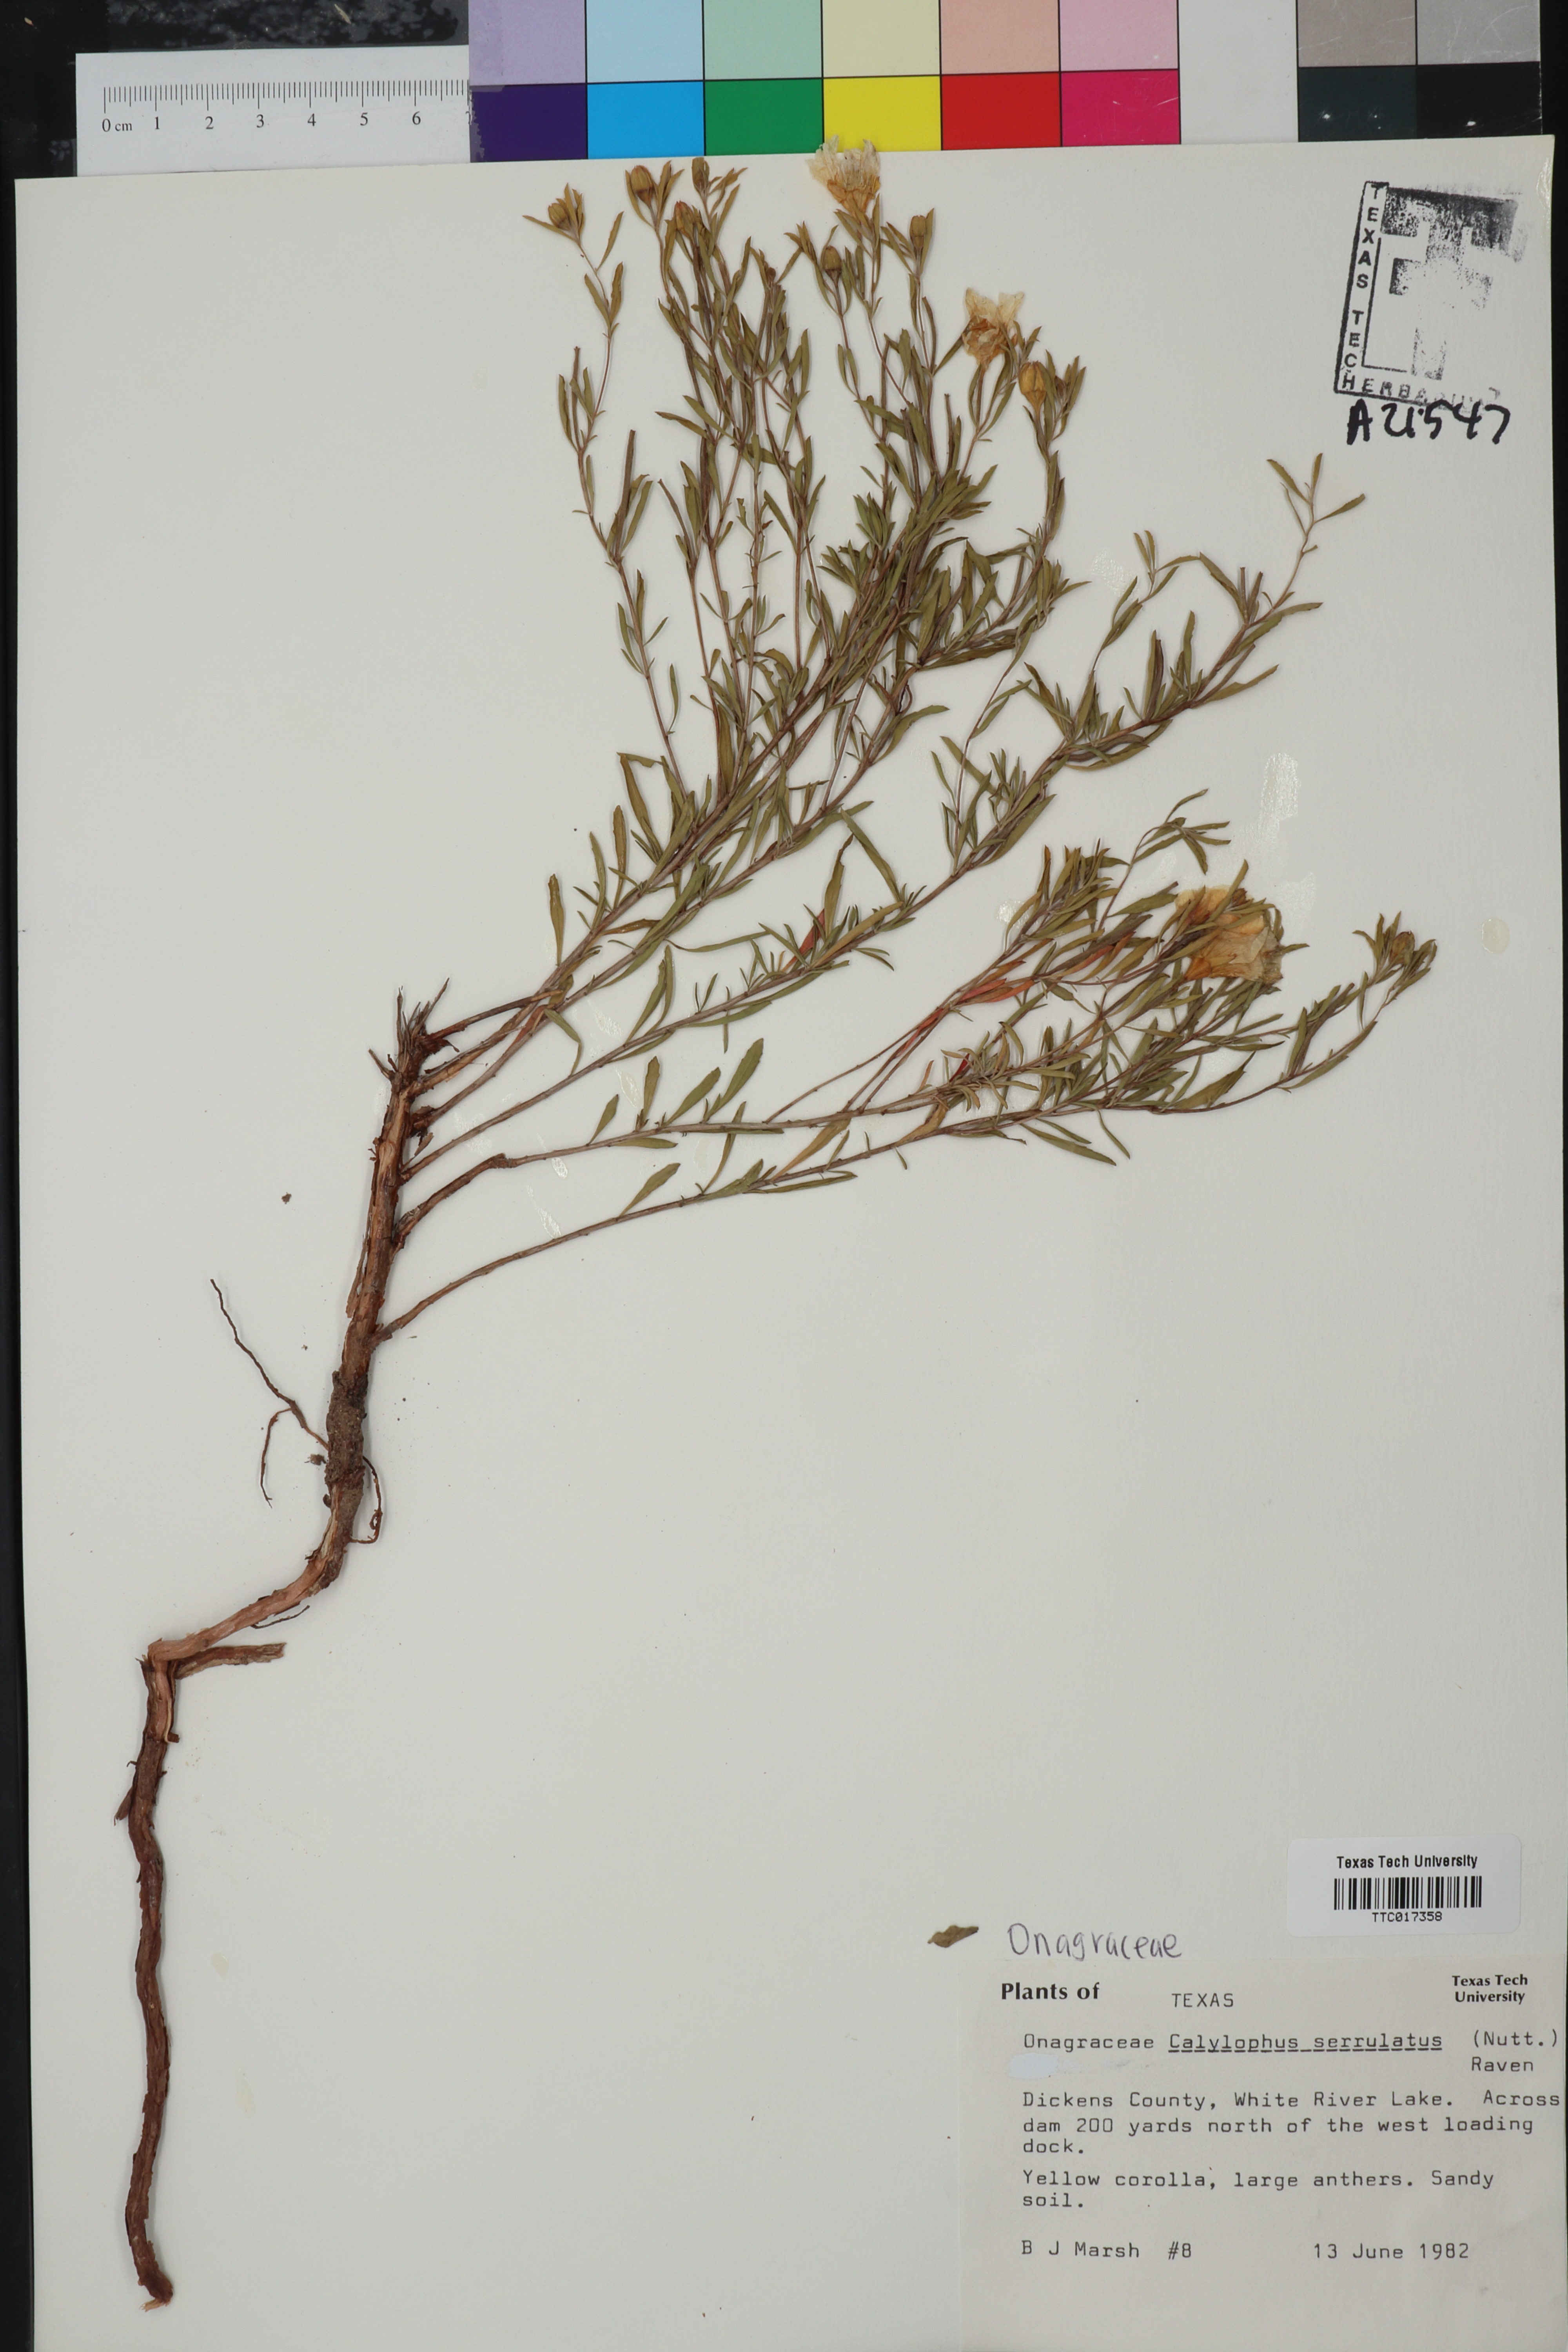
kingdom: Plantae
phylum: Tracheophyta
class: Magnoliopsida
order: Myrtales
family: Onagraceae
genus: Oenothera
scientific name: Oenothera serrulata
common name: Half-shrub calylophus
